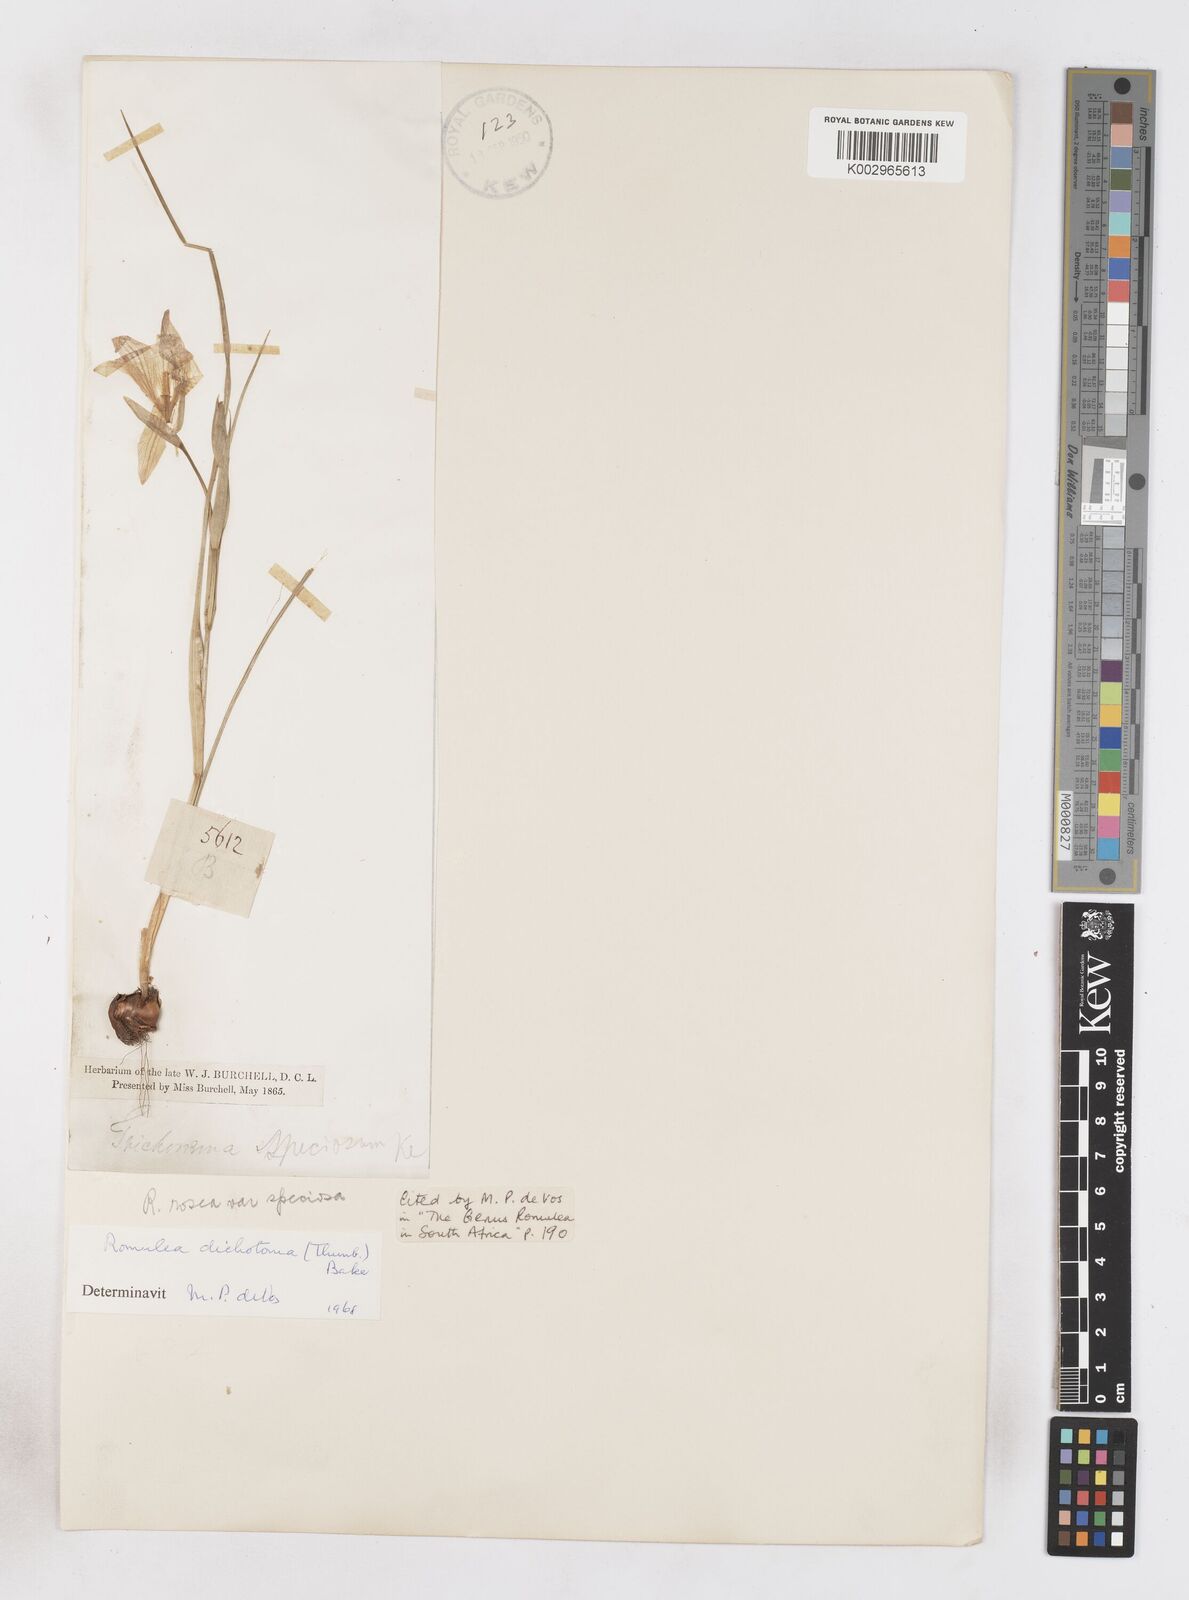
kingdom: Plantae
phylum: Tracheophyta
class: Liliopsida
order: Asparagales
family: Iridaceae
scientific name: Iridaceae
